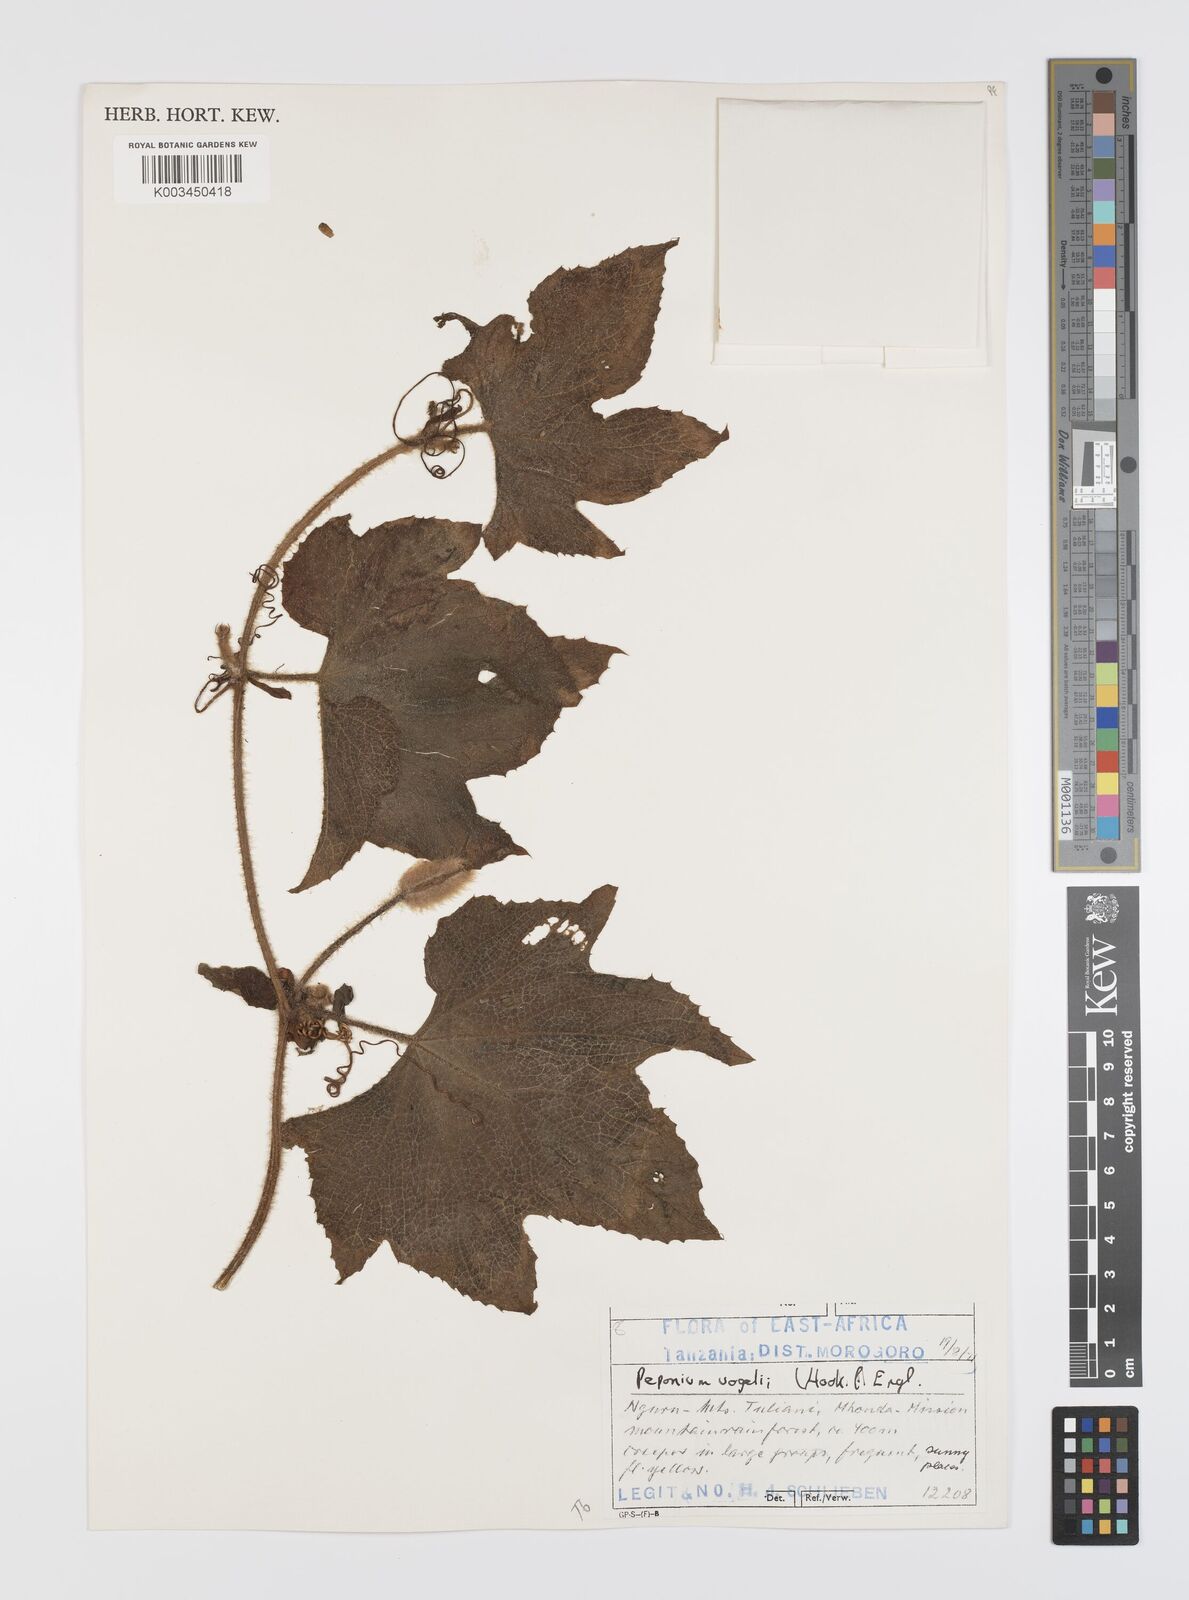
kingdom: Plantae
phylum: Tracheophyta
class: Magnoliopsida
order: Cucurbitales
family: Cucurbitaceae
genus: Peponium
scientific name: Peponium vogelii
